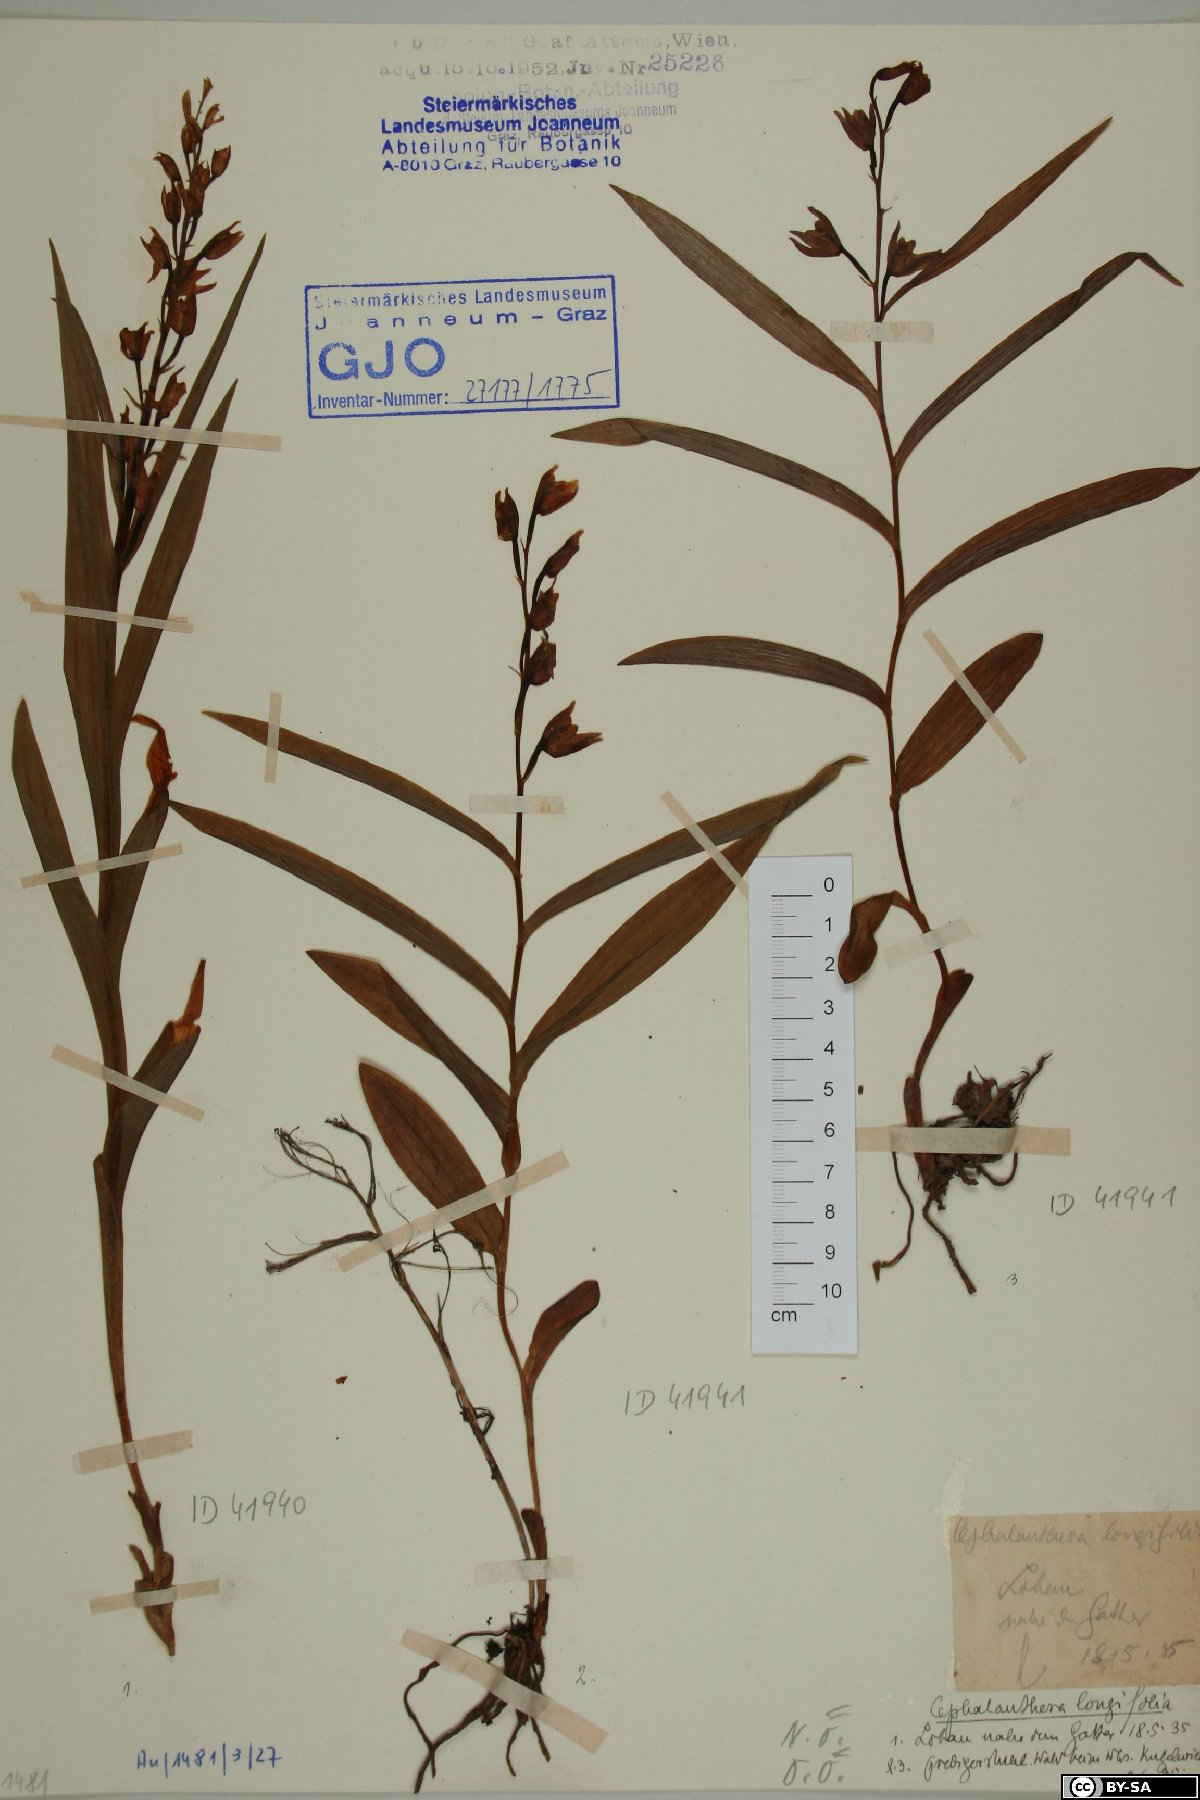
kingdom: Plantae
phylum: Tracheophyta
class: Liliopsida
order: Asparagales
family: Orchidaceae
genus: Cephalanthera
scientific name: Cephalanthera longifolia
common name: Narrow-leaved helleborine
